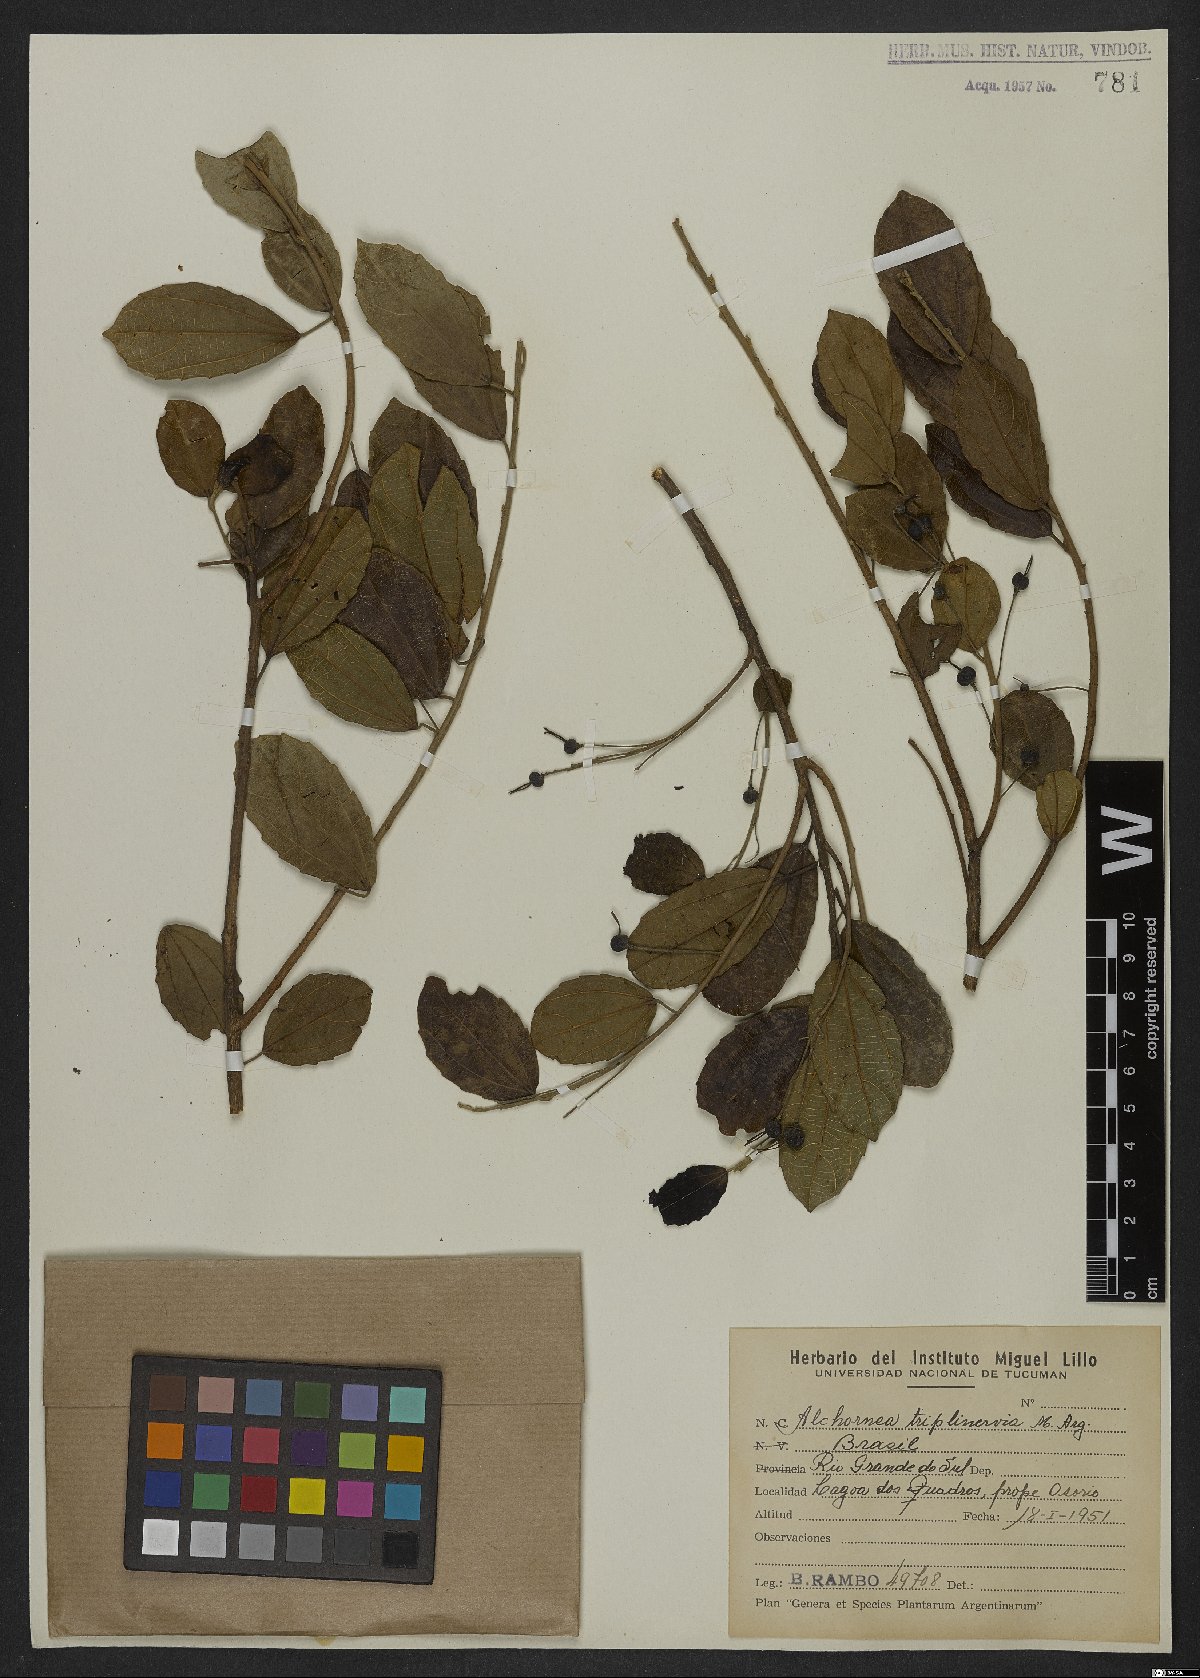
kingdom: Plantae
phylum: Tracheophyta
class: Magnoliopsida
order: Malpighiales
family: Euphorbiaceae
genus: Alchornea
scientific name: Alchornea triplinervia
